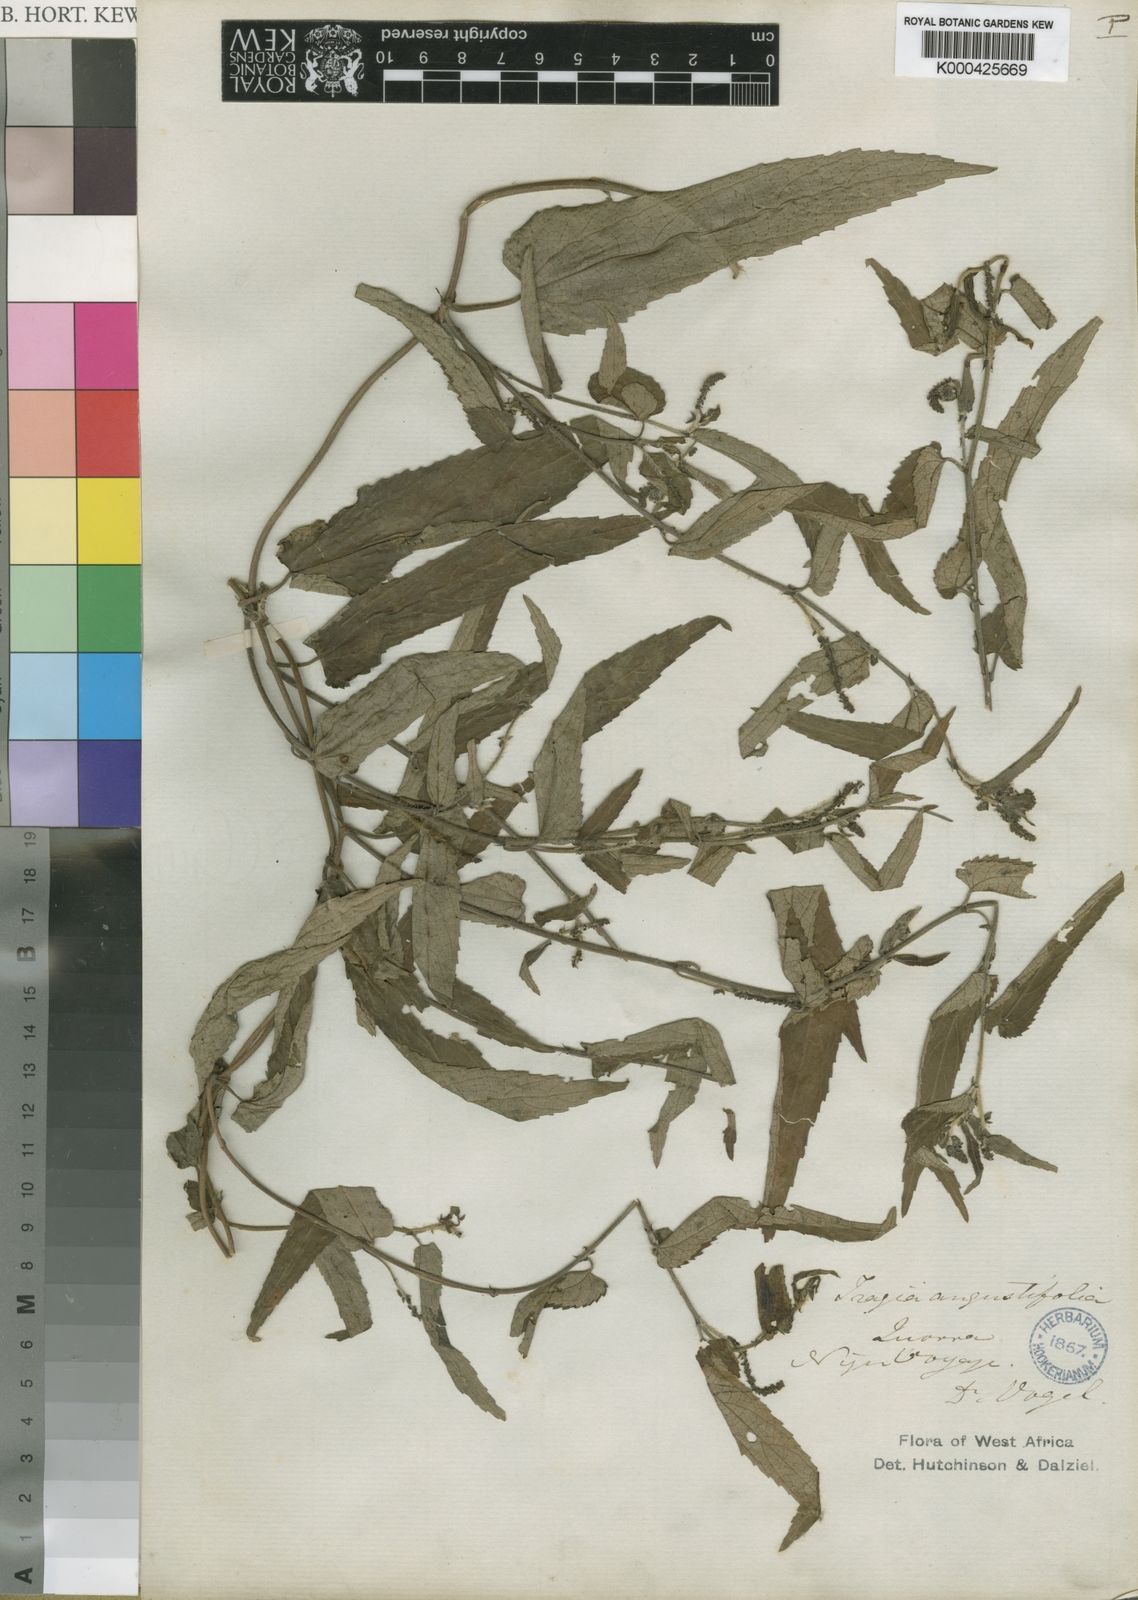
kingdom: Plantae
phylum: Tracheophyta
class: Magnoliopsida
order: Malpighiales
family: Euphorbiaceae
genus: Tragia
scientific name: Tragia vogelii
